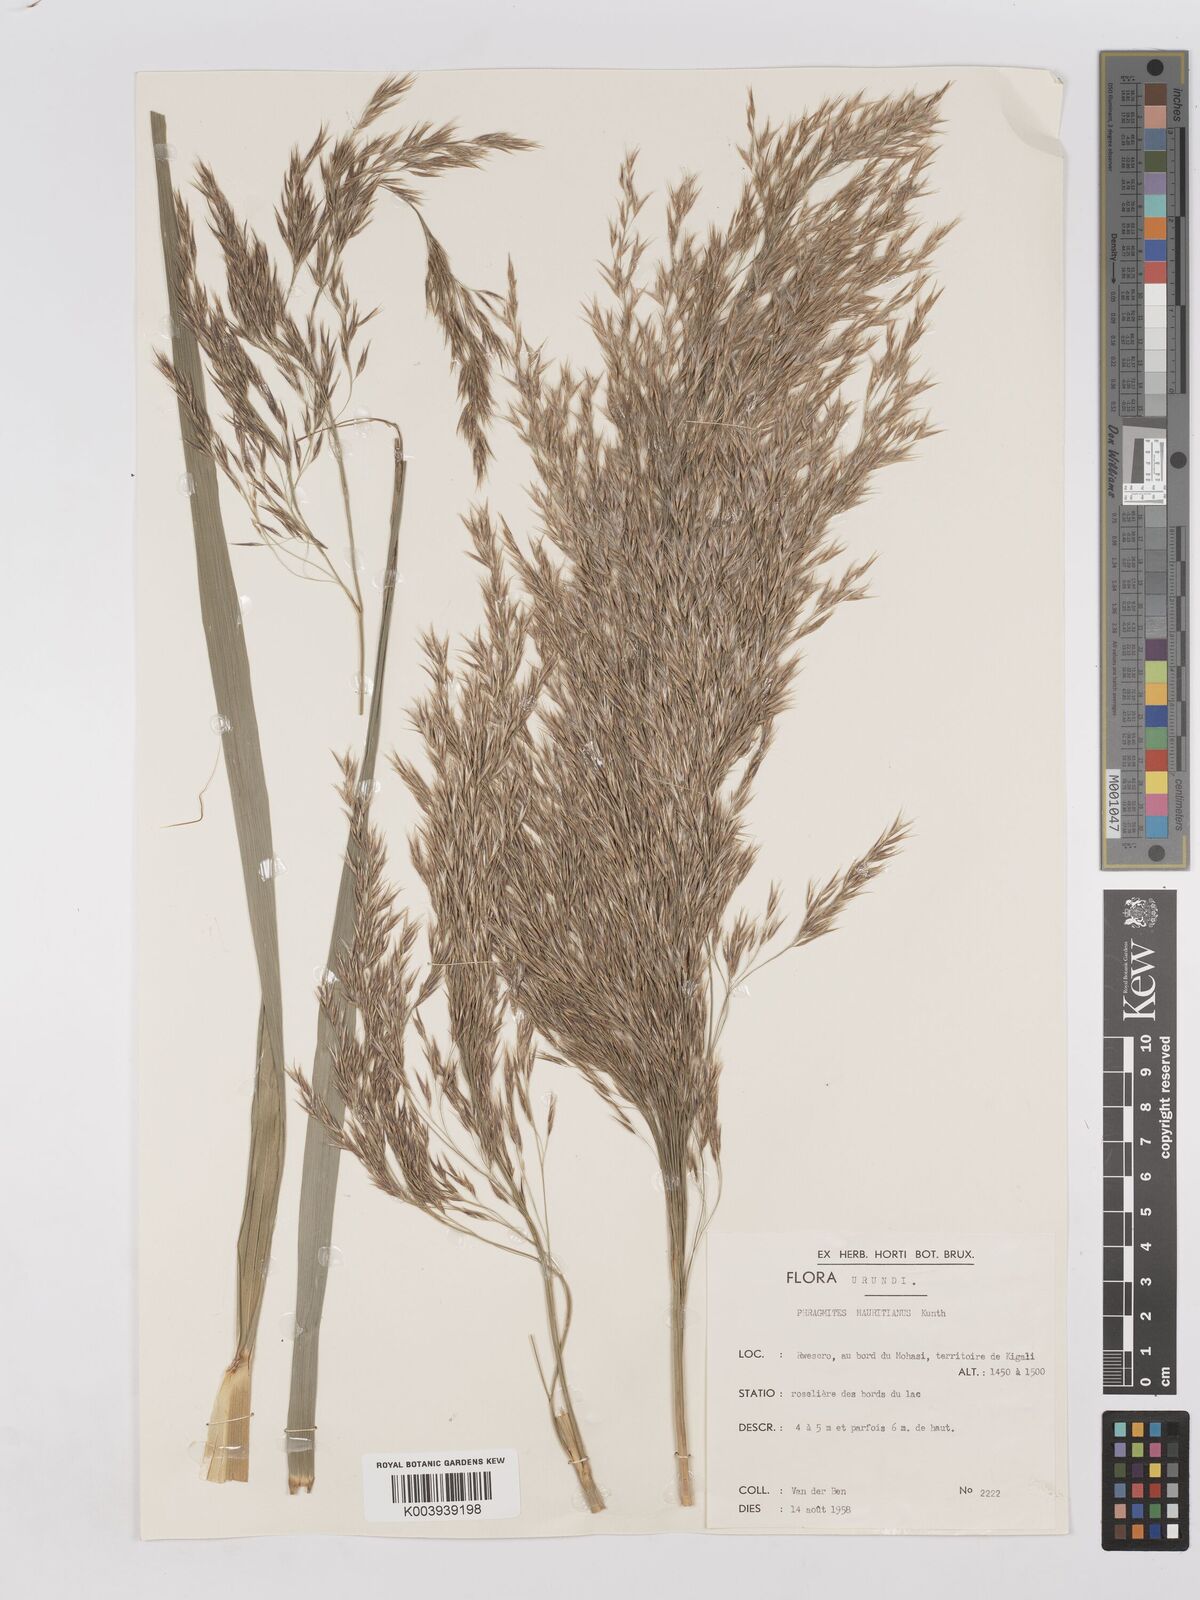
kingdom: Plantae
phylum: Tracheophyta
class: Liliopsida
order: Poales
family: Poaceae
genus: Phragmites
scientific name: Phragmites mauritianus
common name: Reed grass
